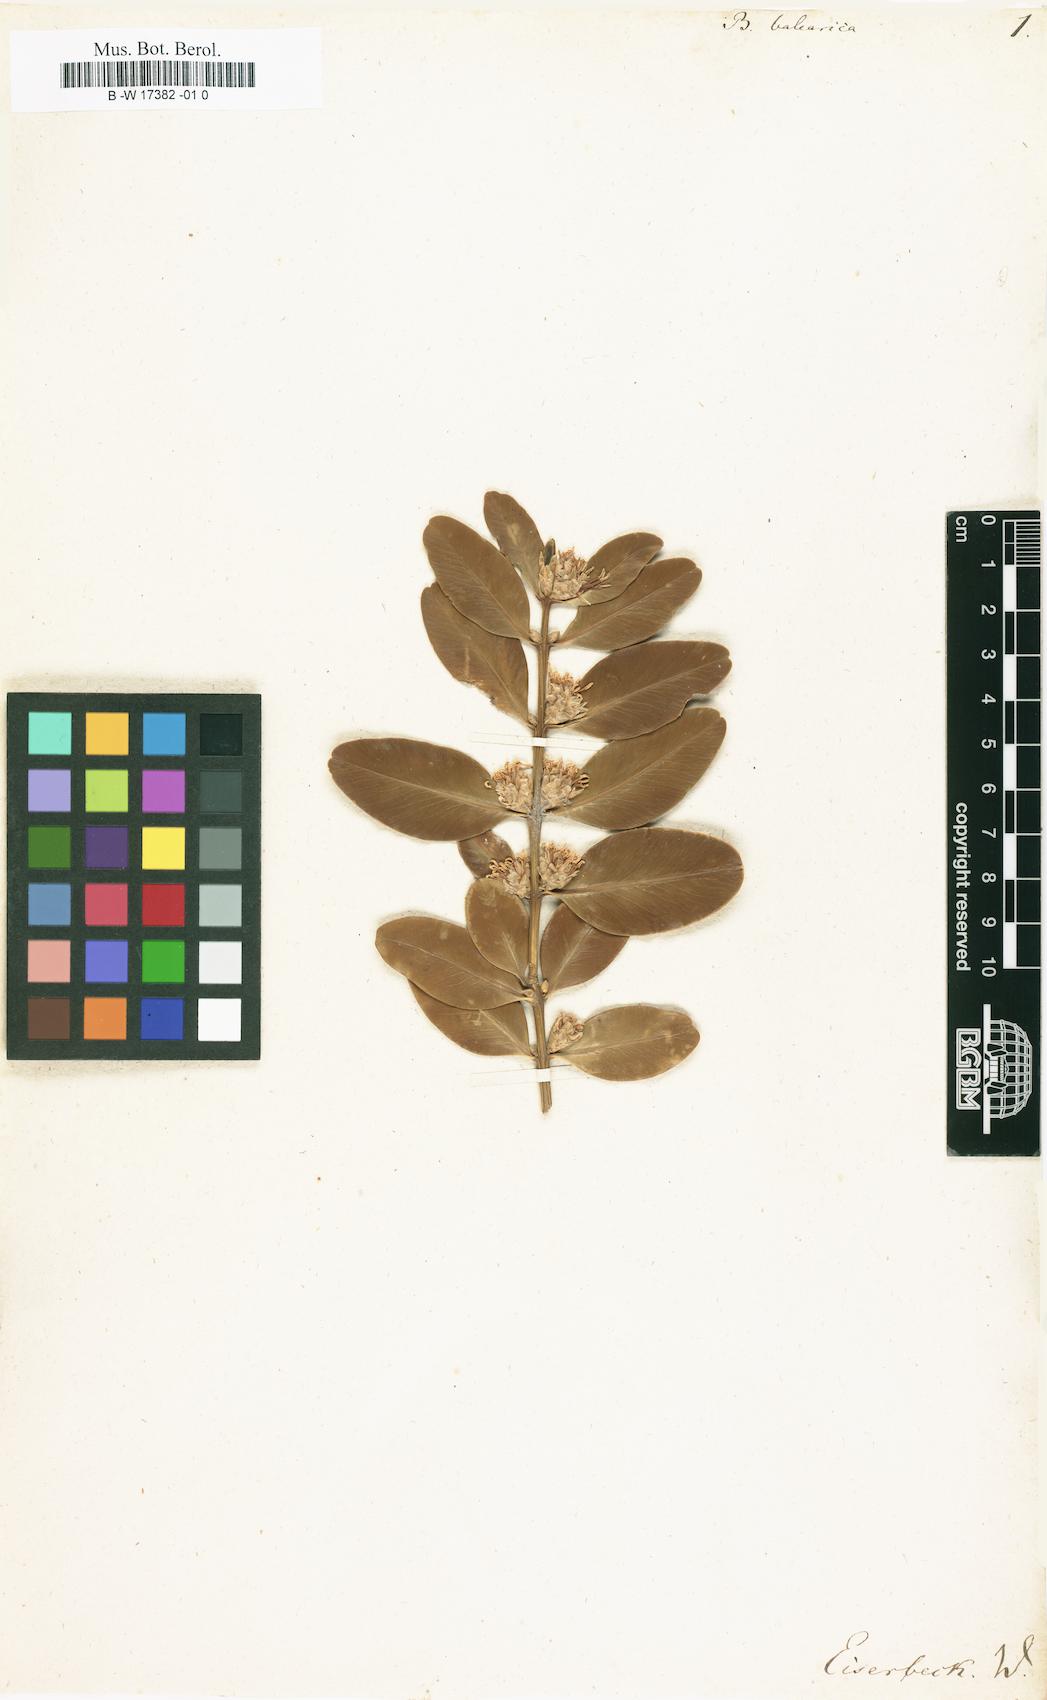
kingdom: Plantae
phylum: Tracheophyta
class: Magnoliopsida
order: Buxales
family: Buxaceae
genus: Buxus
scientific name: Buxus balearica
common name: Balearic box
